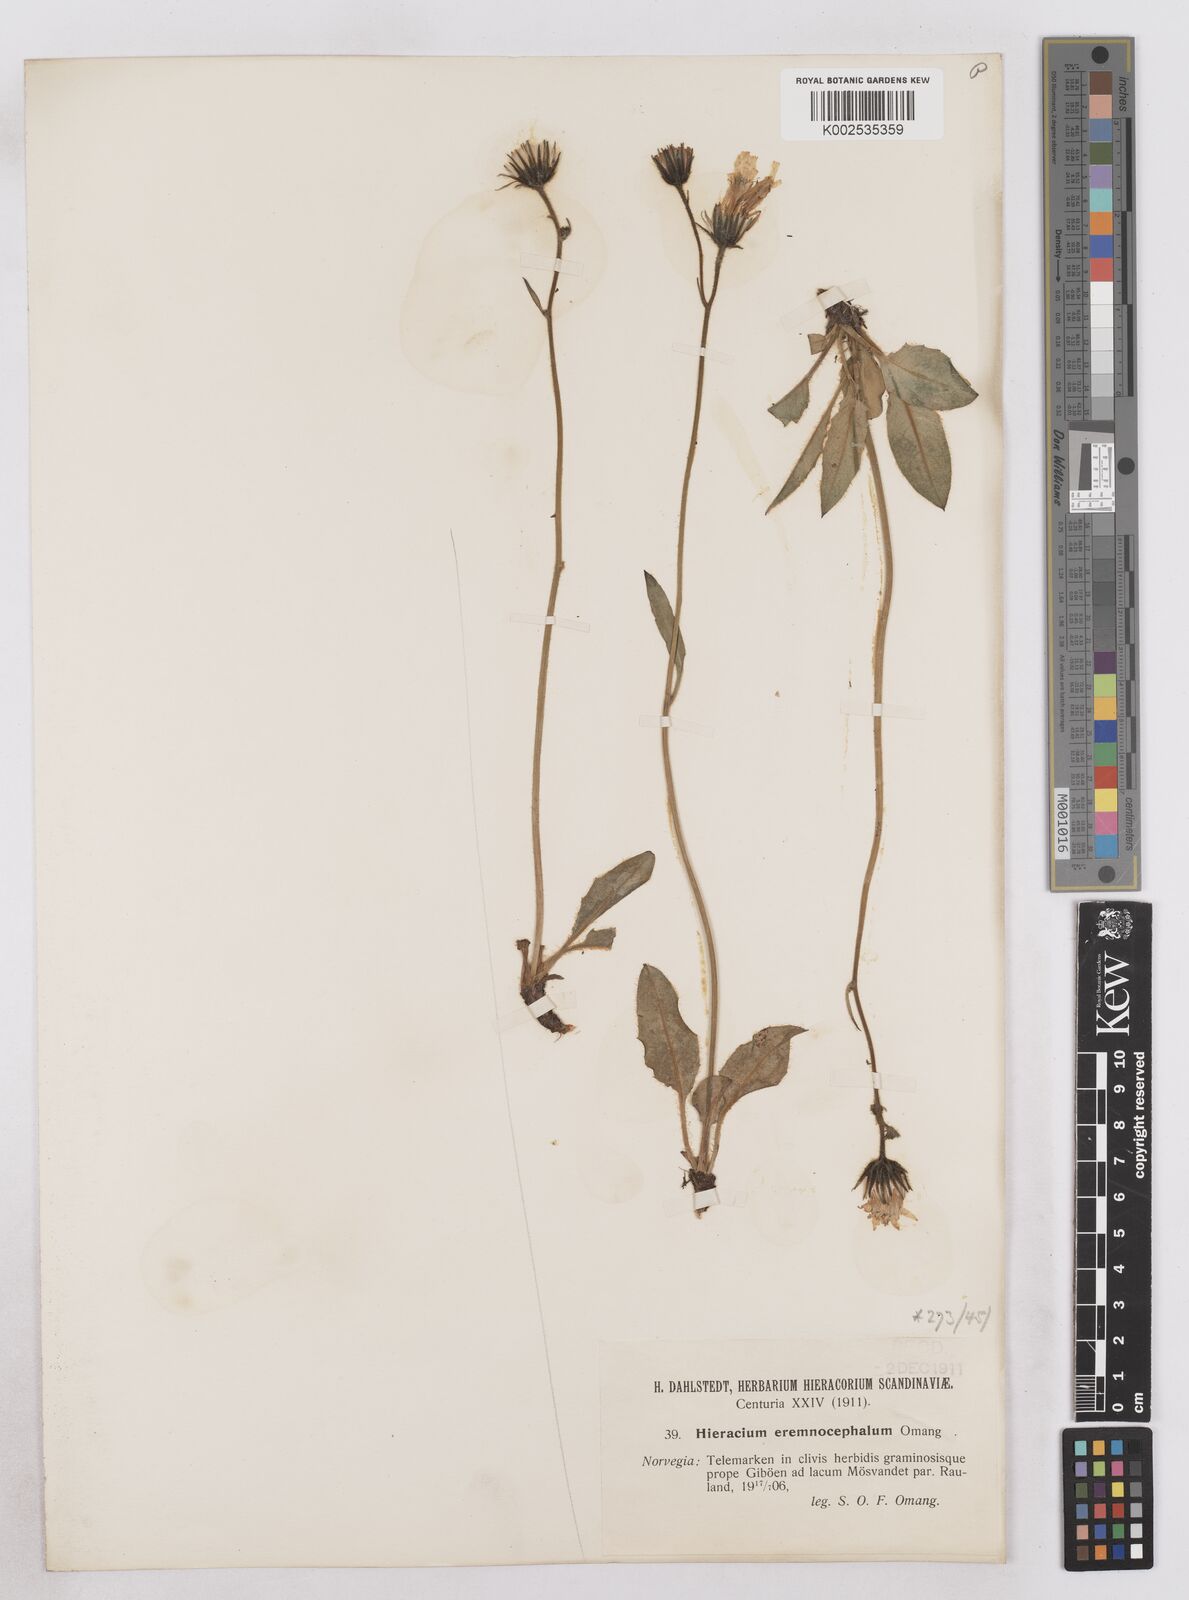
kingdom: Plantae
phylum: Tracheophyta
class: Magnoliopsida
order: Asterales
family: Asteraceae
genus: Hieracium
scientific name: Hieracium conspurcans
